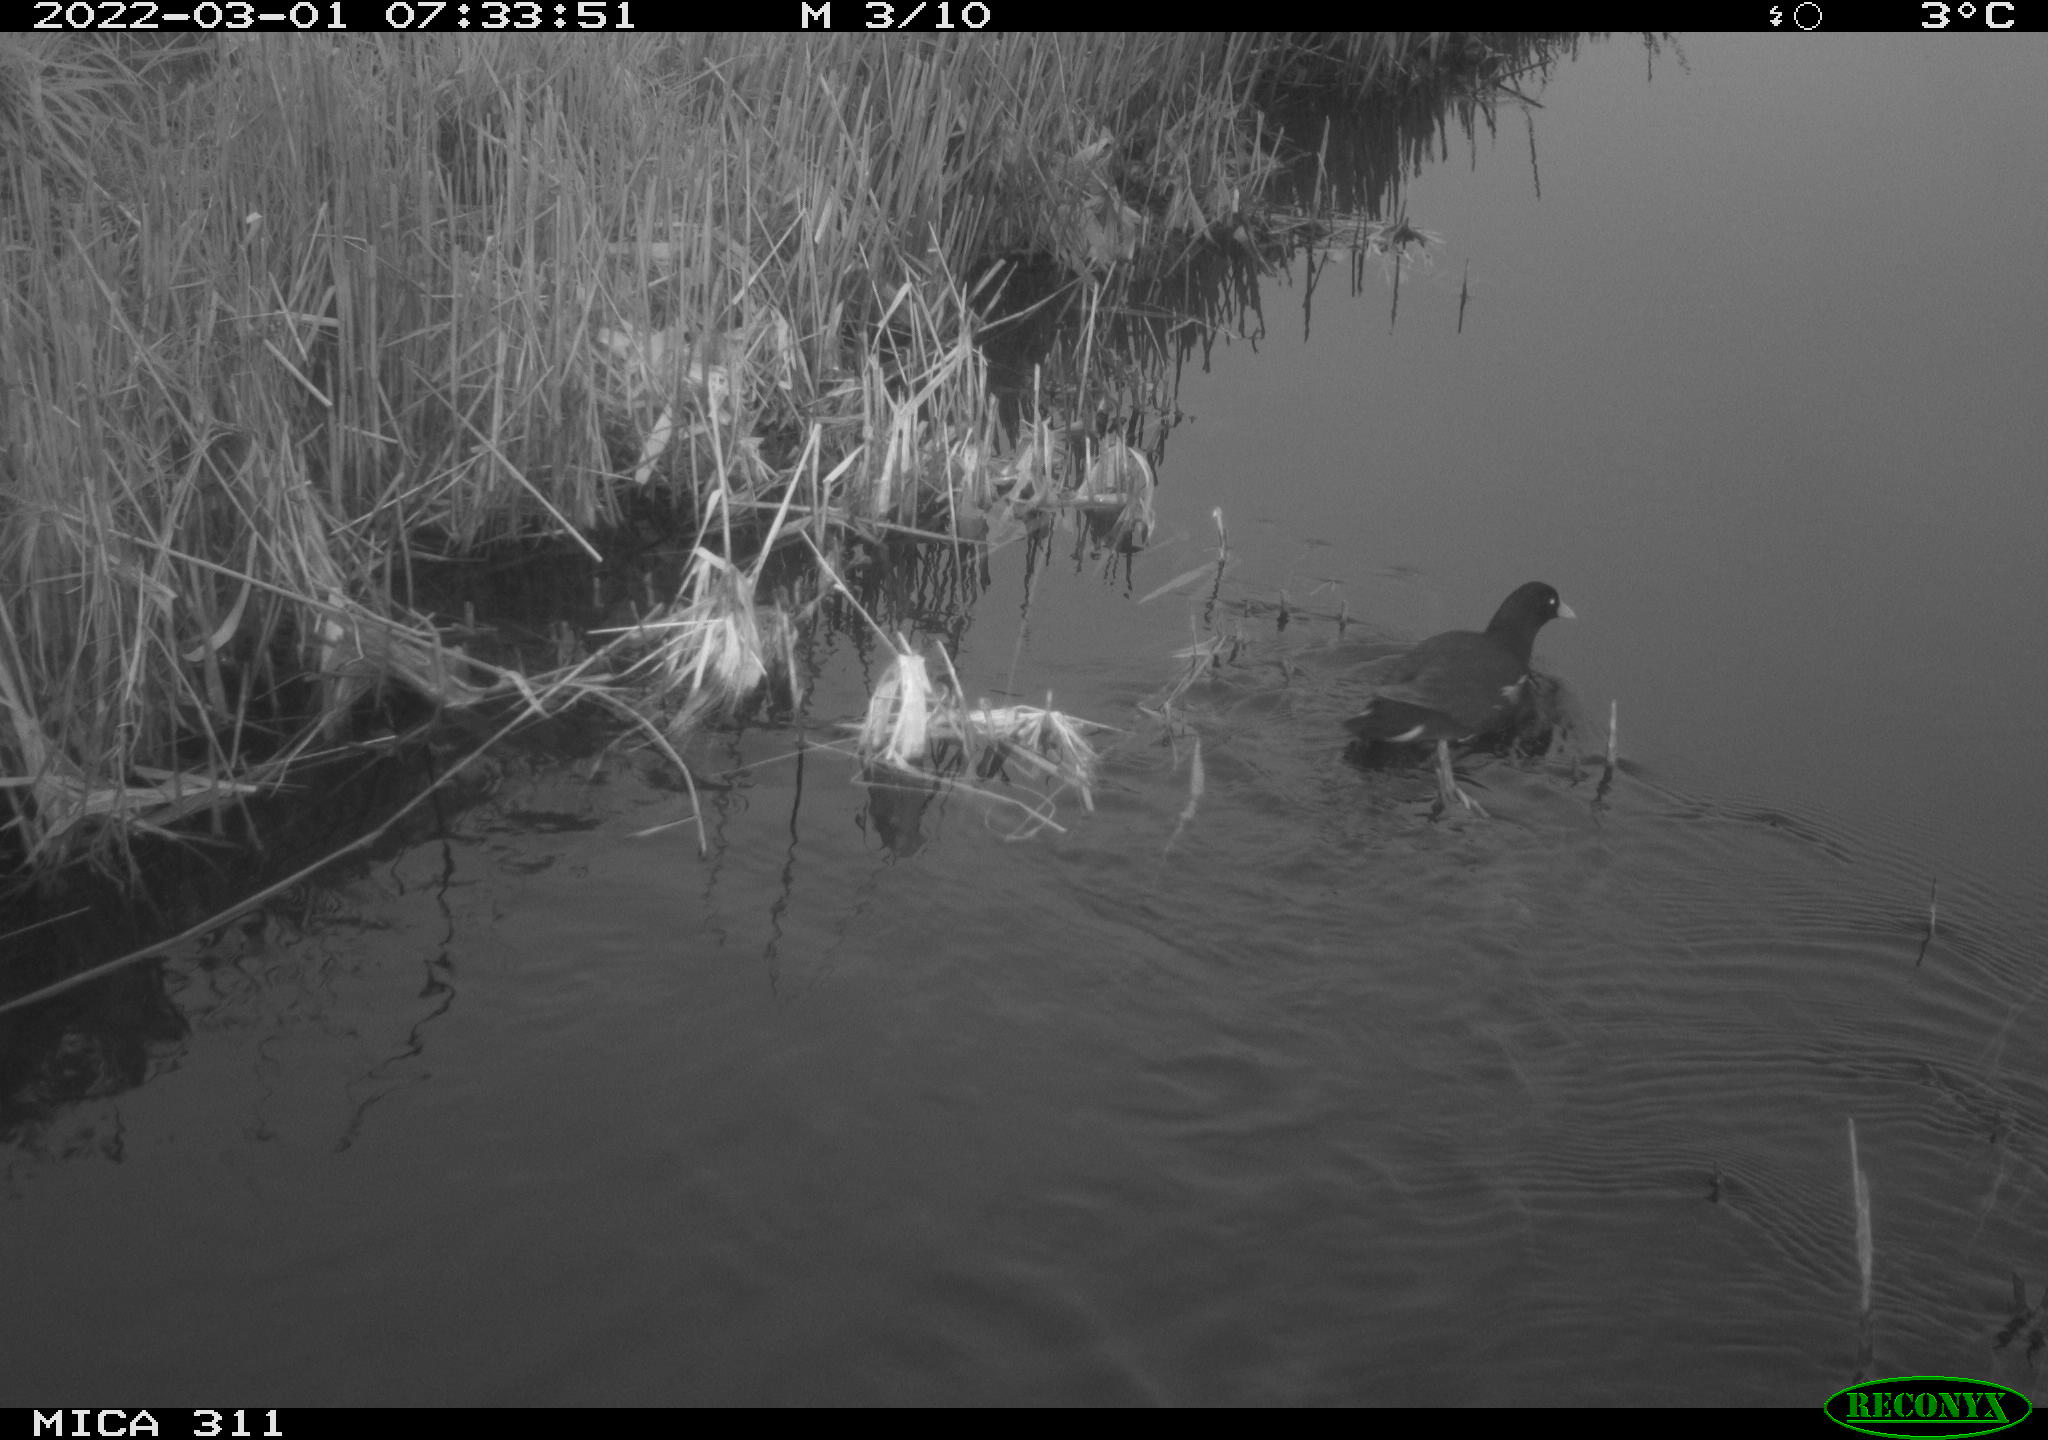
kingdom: Animalia
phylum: Chordata
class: Aves
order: Gruiformes
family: Rallidae
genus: Gallinula
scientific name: Gallinula chloropus
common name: Common moorhen
